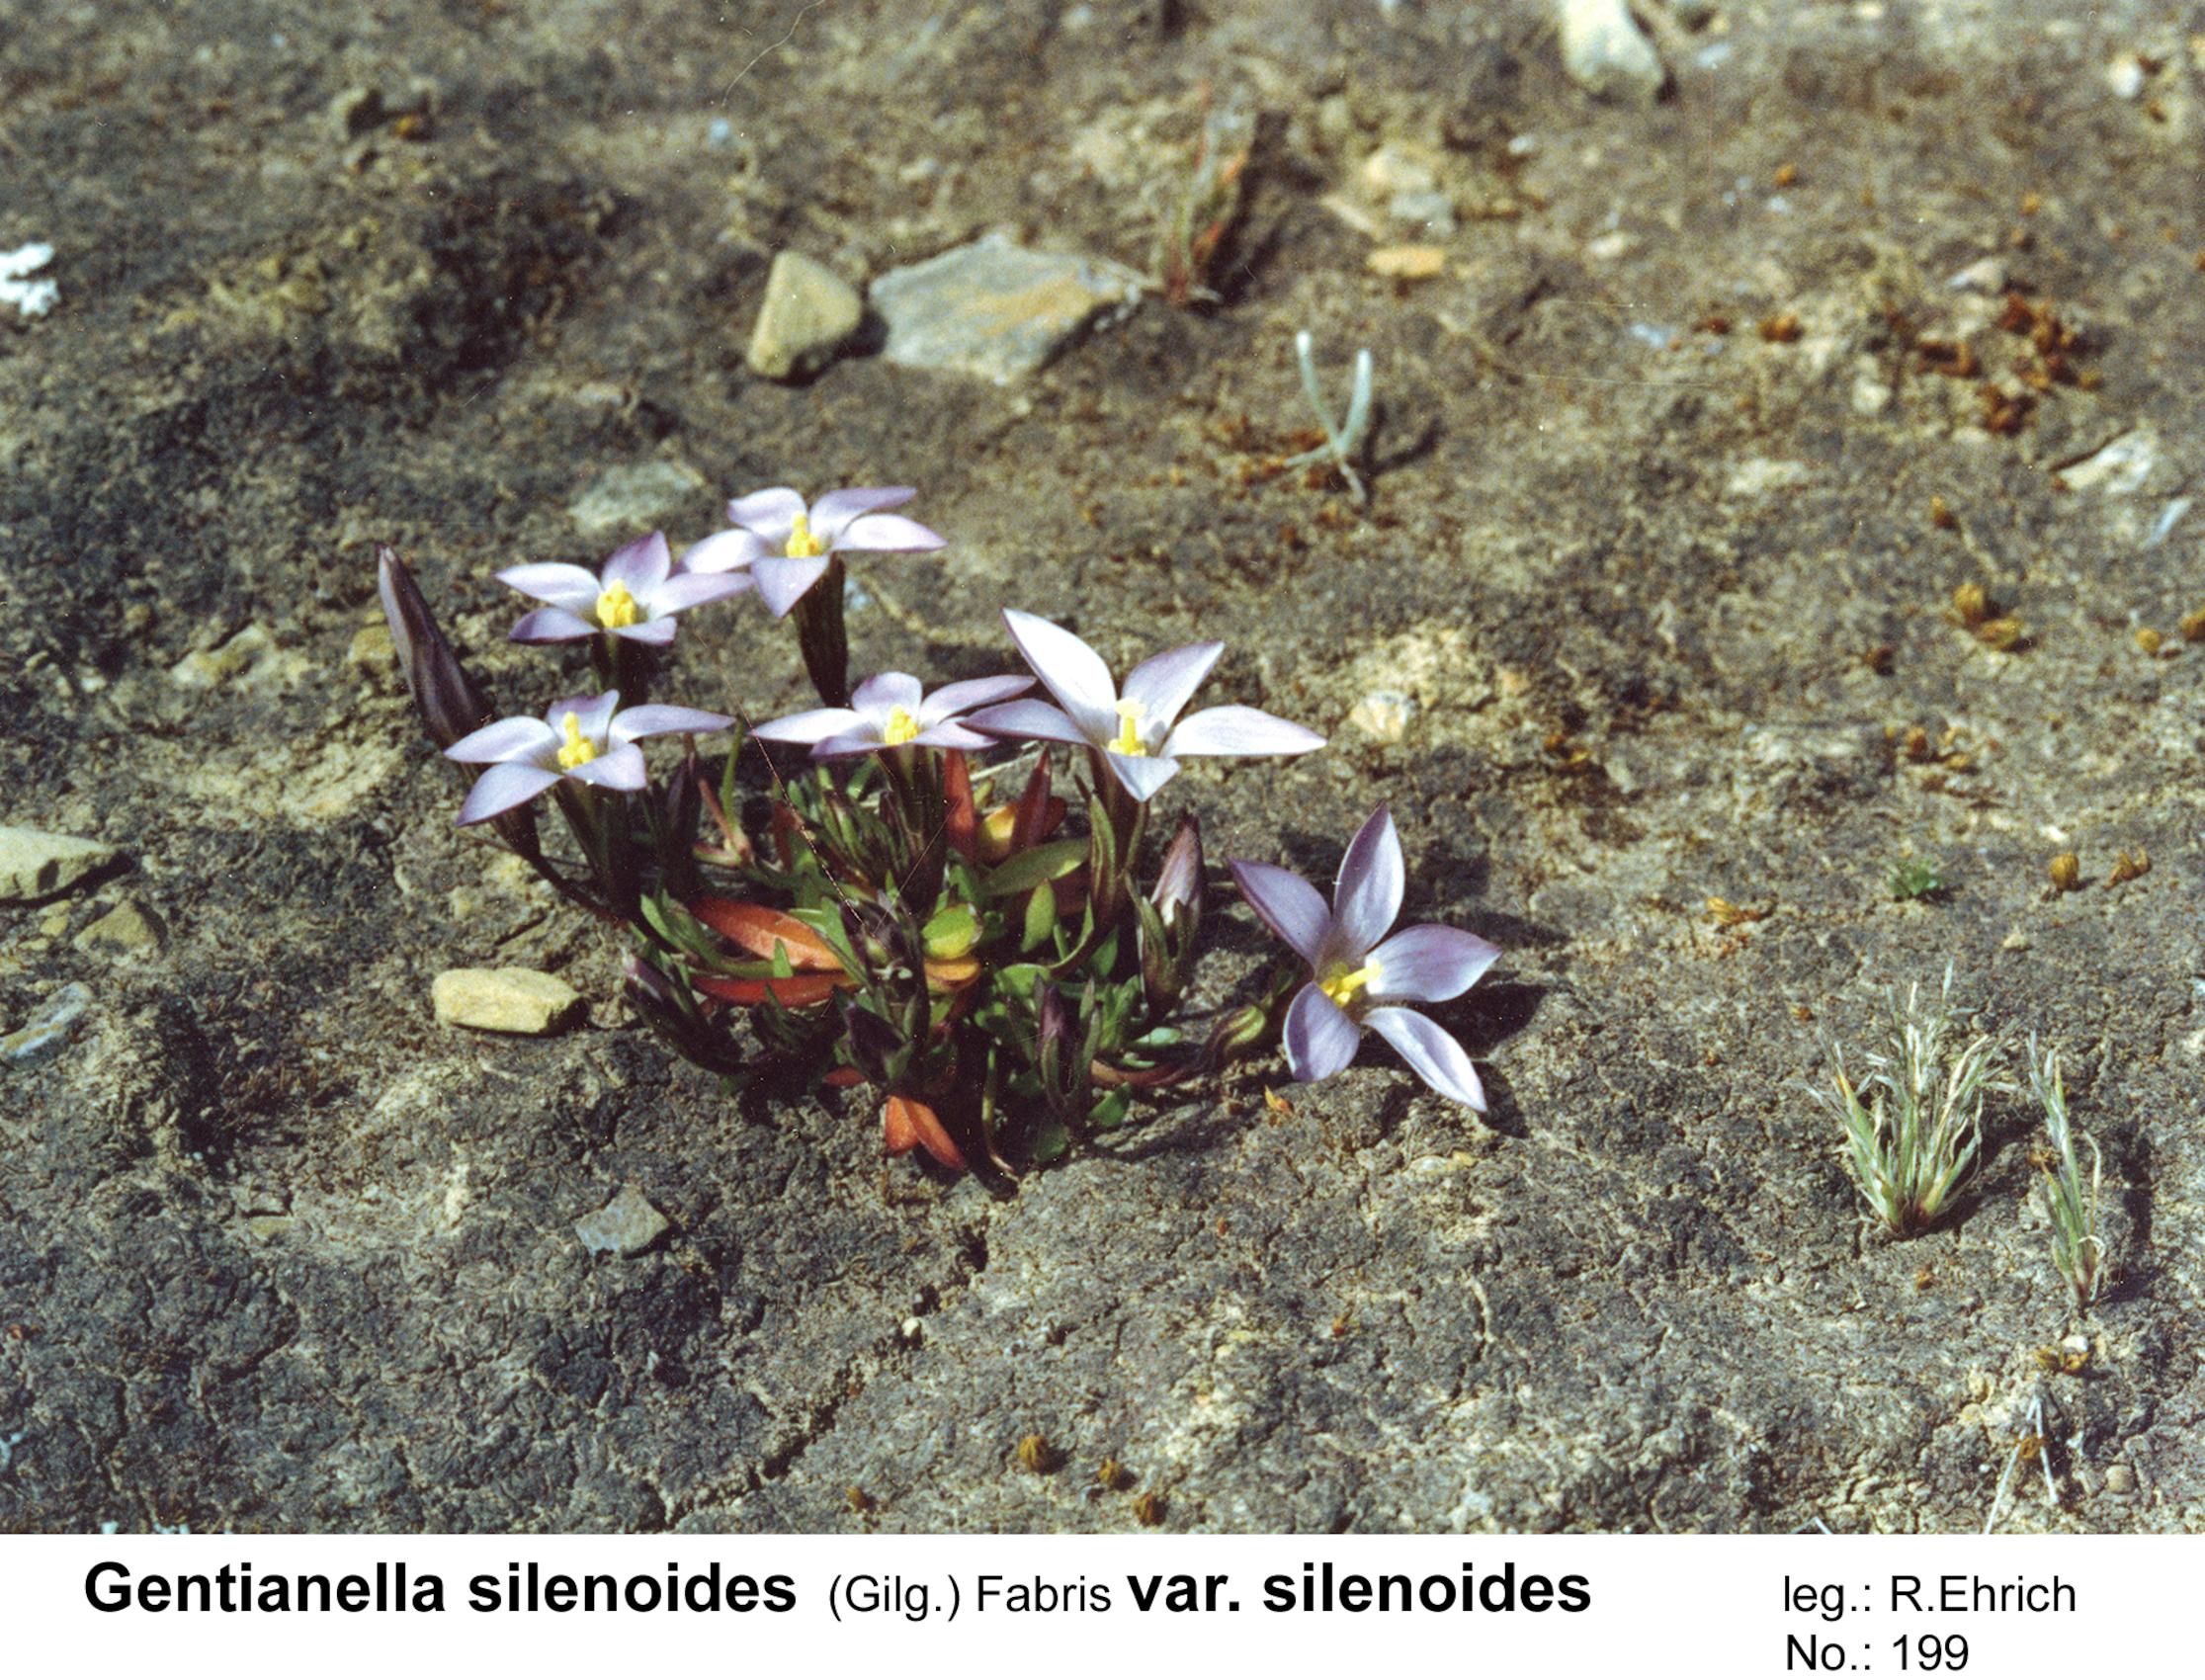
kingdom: Plantae
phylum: Tracheophyta
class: Magnoliopsida
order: Gentianales
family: Gentianaceae
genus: Gentianella
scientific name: Gentianella silenoides
